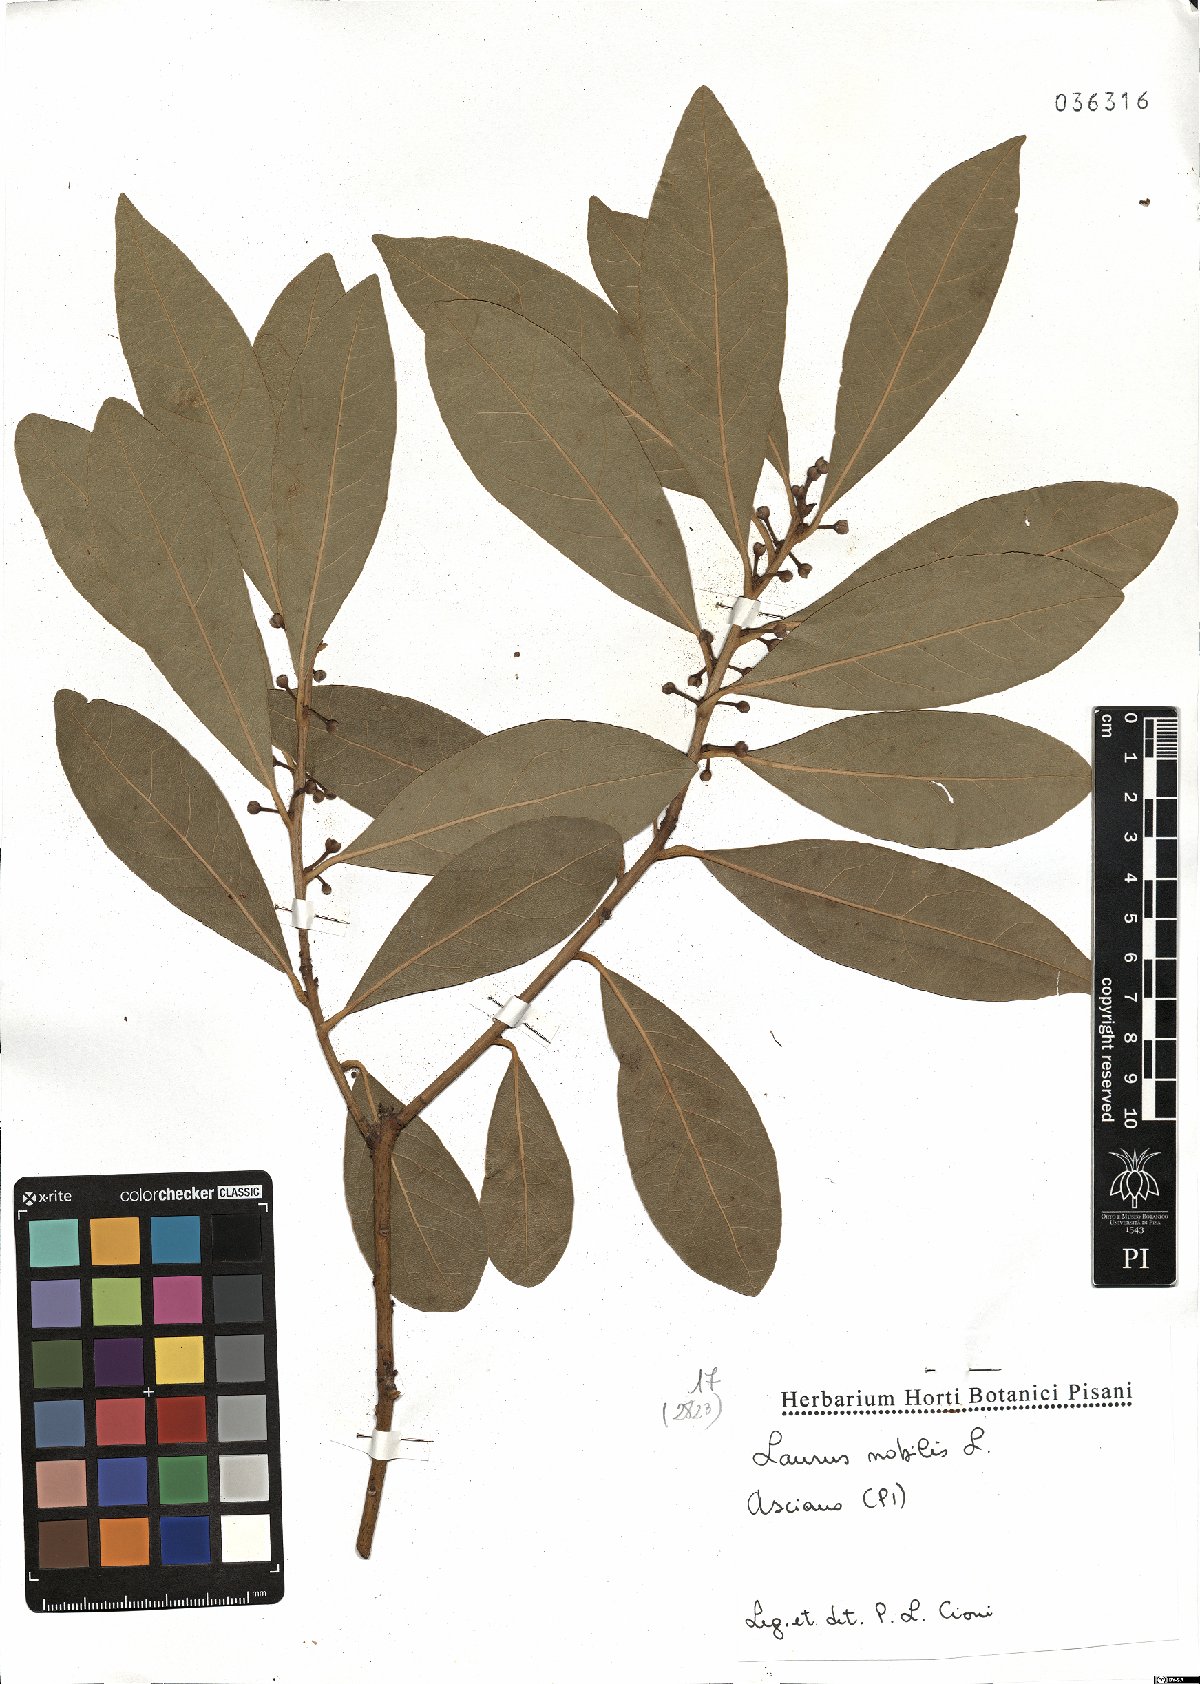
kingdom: Plantae
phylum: Tracheophyta
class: Magnoliopsida
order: Laurales
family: Lauraceae
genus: Laurus
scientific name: Laurus nobilis
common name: Bay
